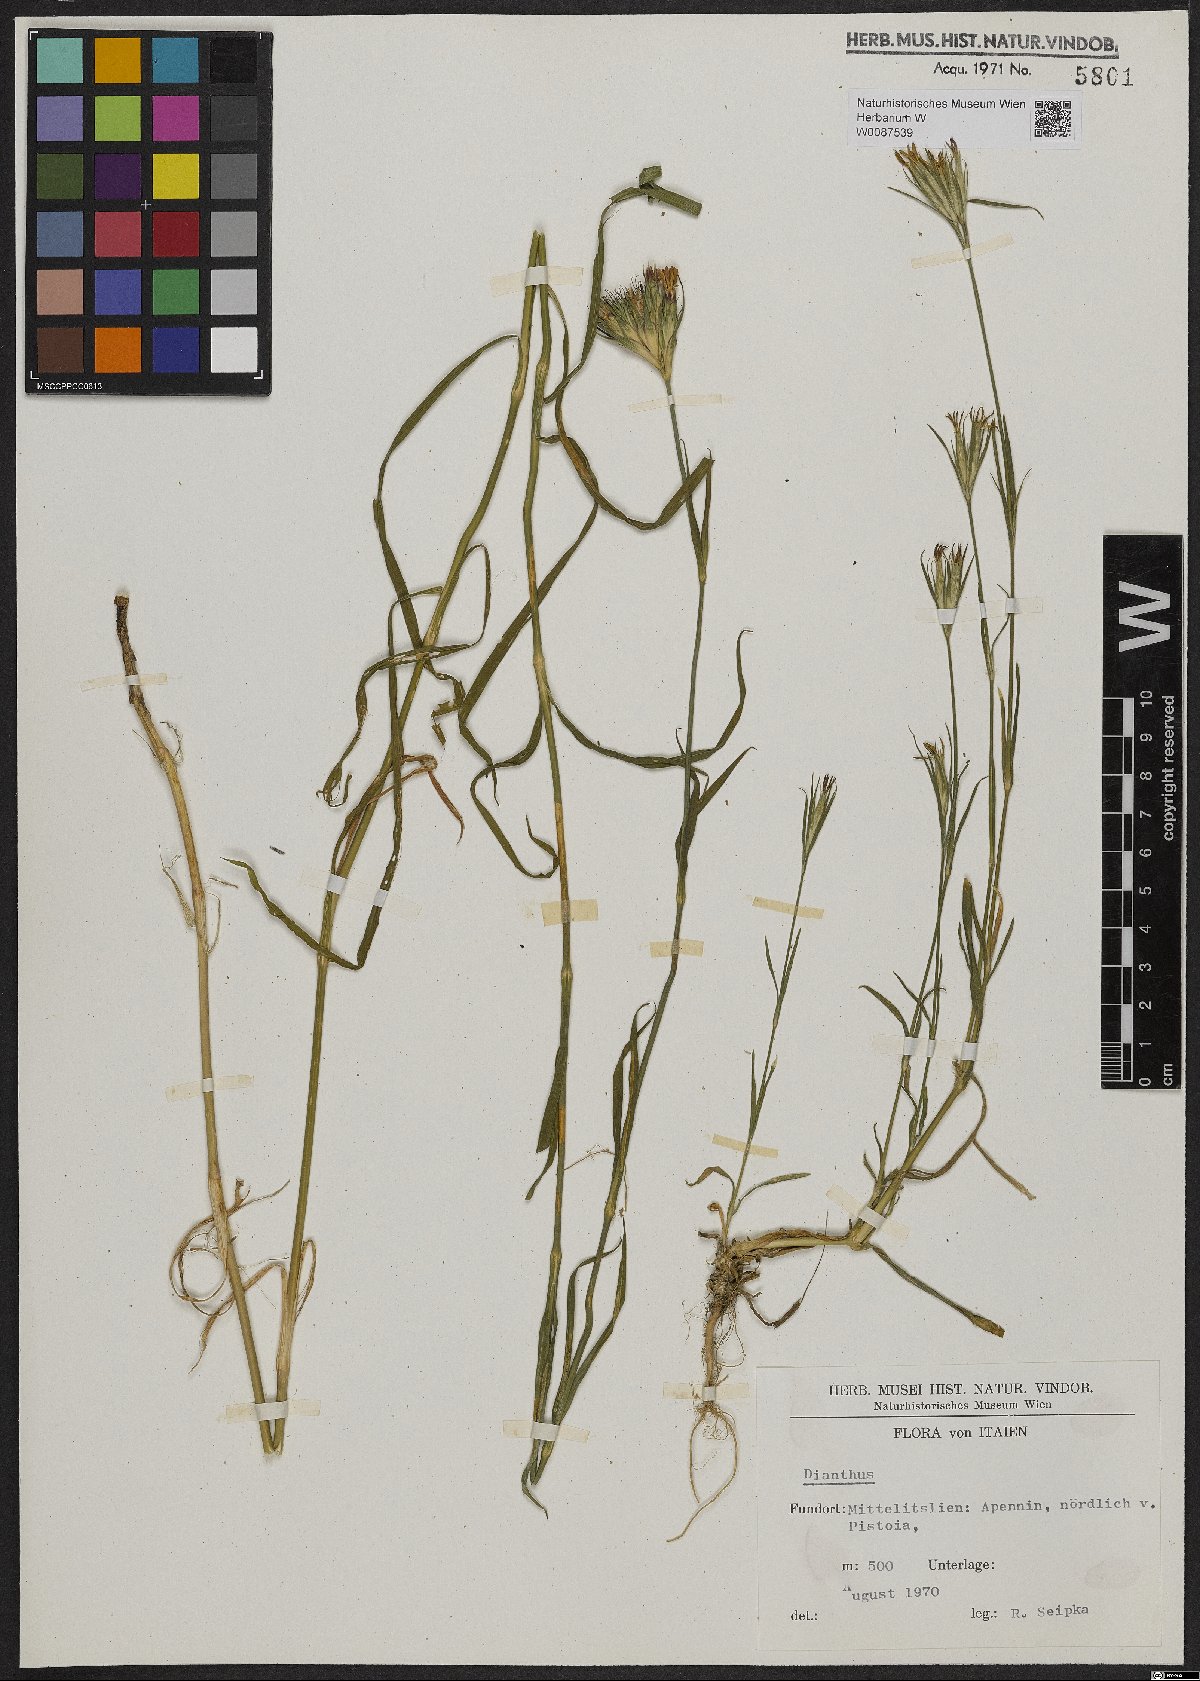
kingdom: Plantae
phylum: Tracheophyta
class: Magnoliopsida
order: Caryophyllales
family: Caryophyllaceae
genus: Dianthus
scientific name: Dianthus armeria
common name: Deptford pink
